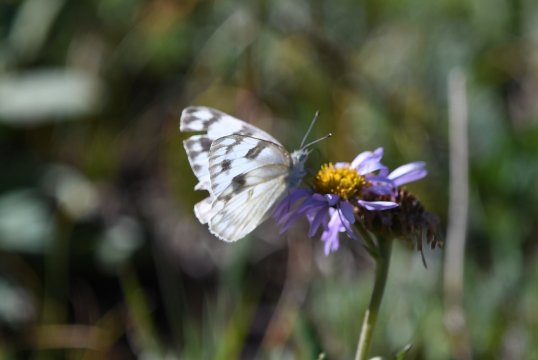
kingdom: Animalia
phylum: Arthropoda
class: Insecta
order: Lepidoptera
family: Pieridae
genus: Pontia
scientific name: Pontia protodice
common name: Checkered White
